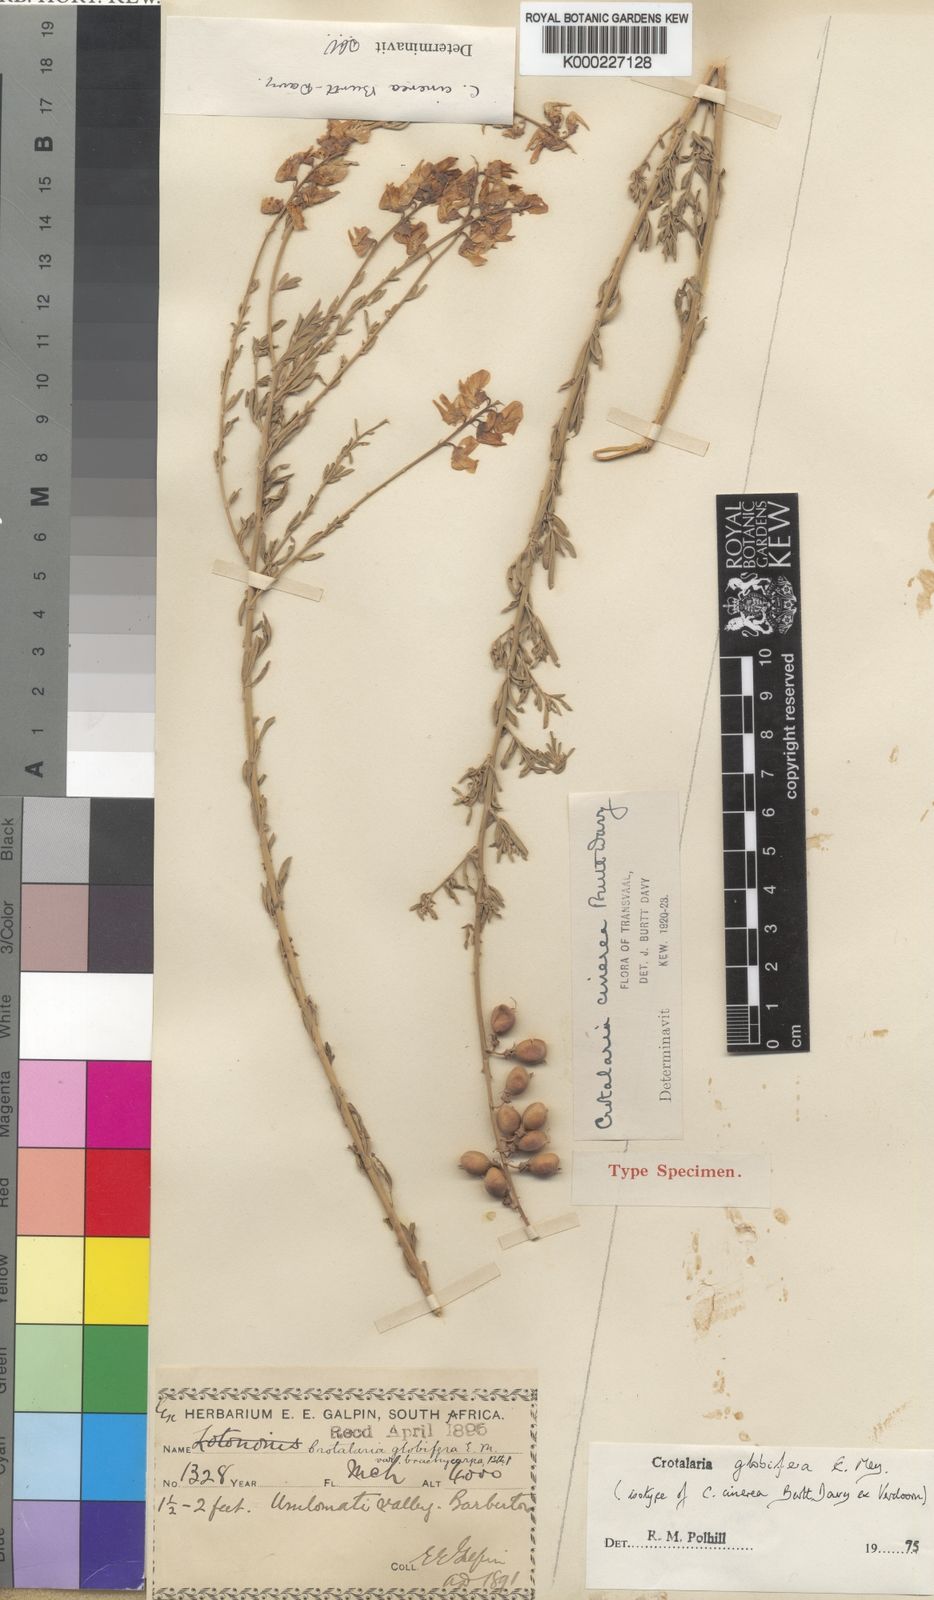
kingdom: Plantae
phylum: Tracheophyta
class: Magnoliopsida
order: Fabales
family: Fabaceae
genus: Crotalaria
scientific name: Crotalaria globifera
